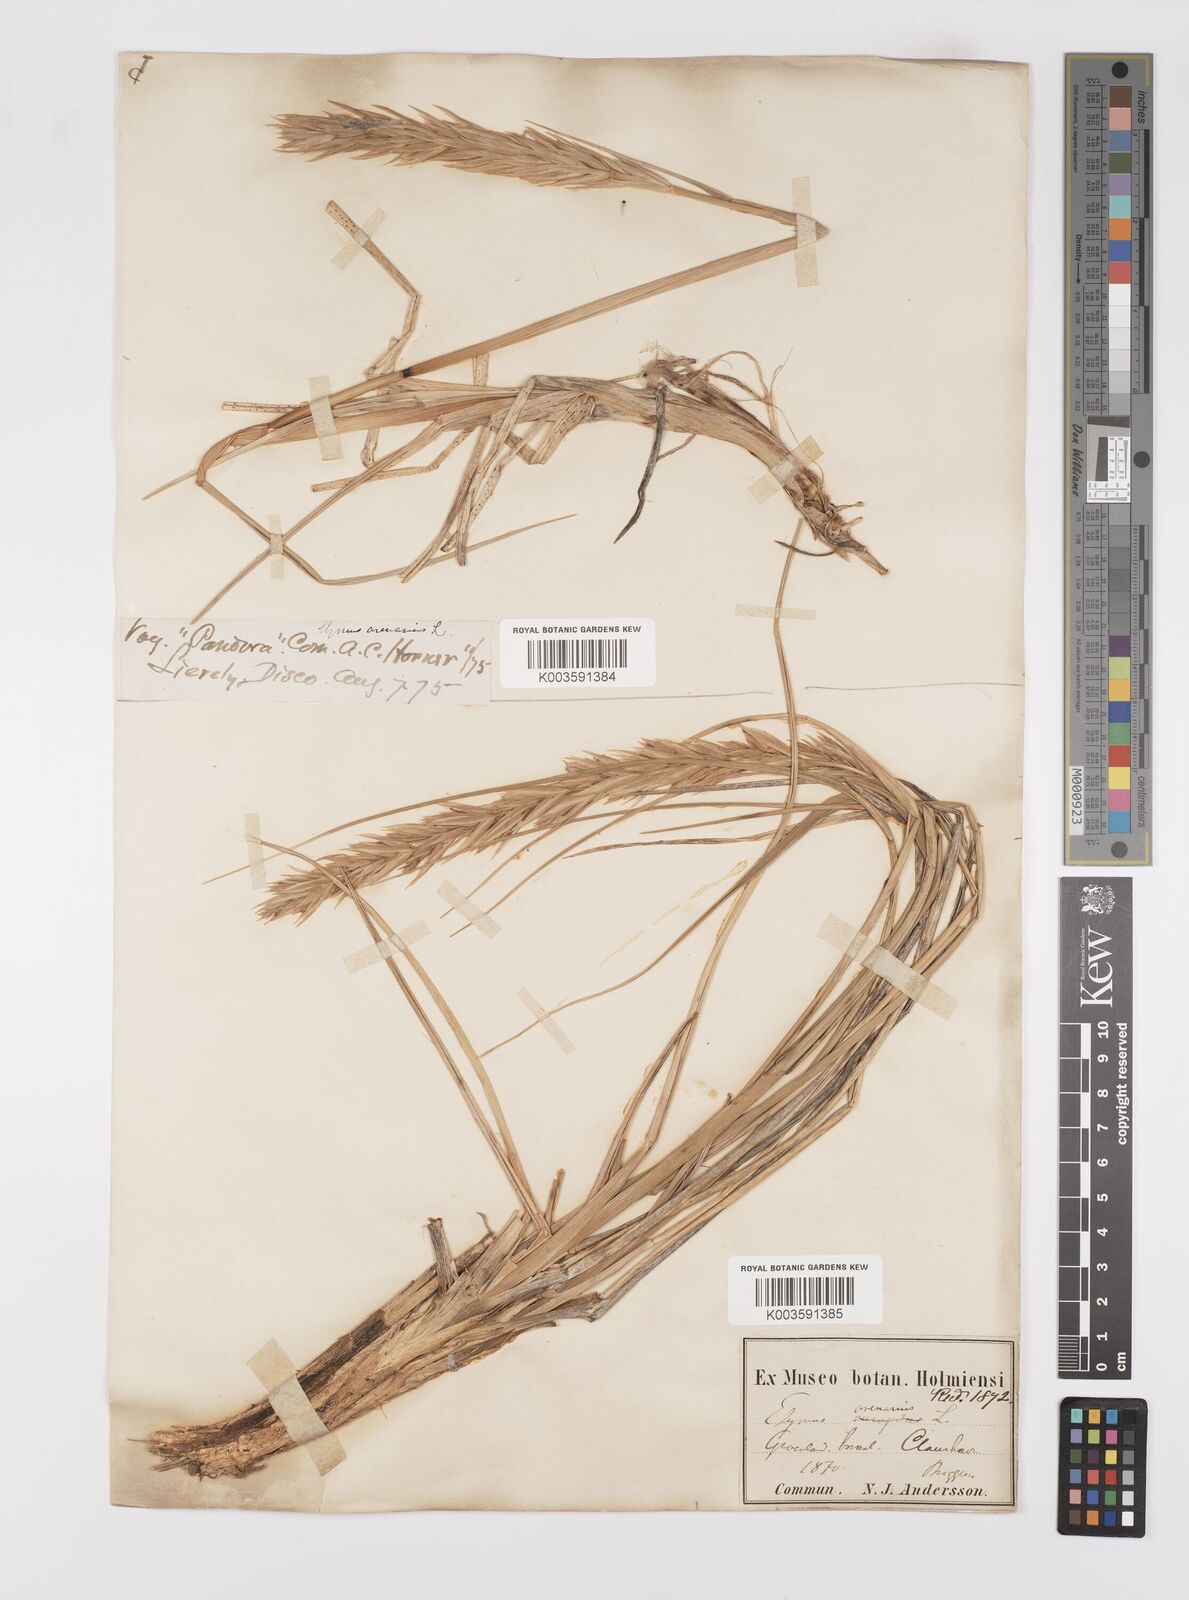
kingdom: Plantae
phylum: Tracheophyta
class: Liliopsida
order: Poales
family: Poaceae
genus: Leymus
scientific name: Leymus mollis
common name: American dune grass
